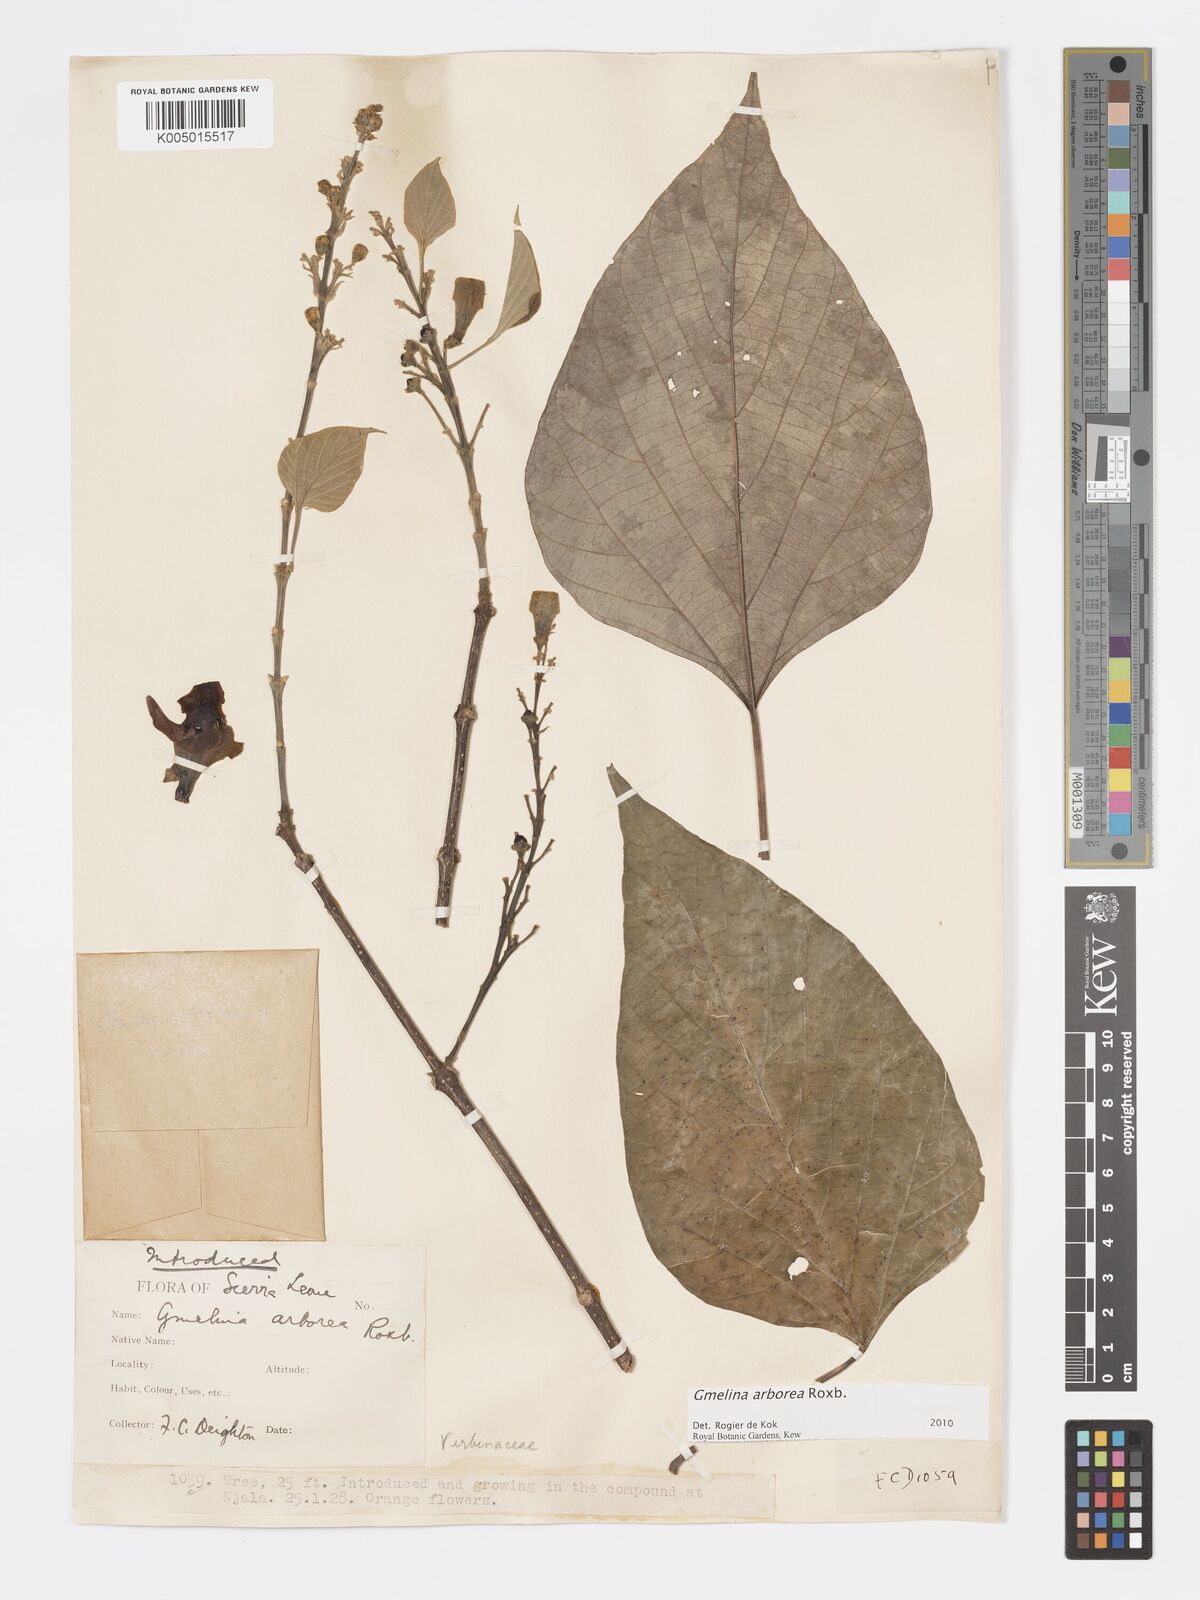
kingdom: Plantae
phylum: Tracheophyta
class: Magnoliopsida
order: Lamiales
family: Lamiaceae
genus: Gmelina
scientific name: Gmelina arborea
